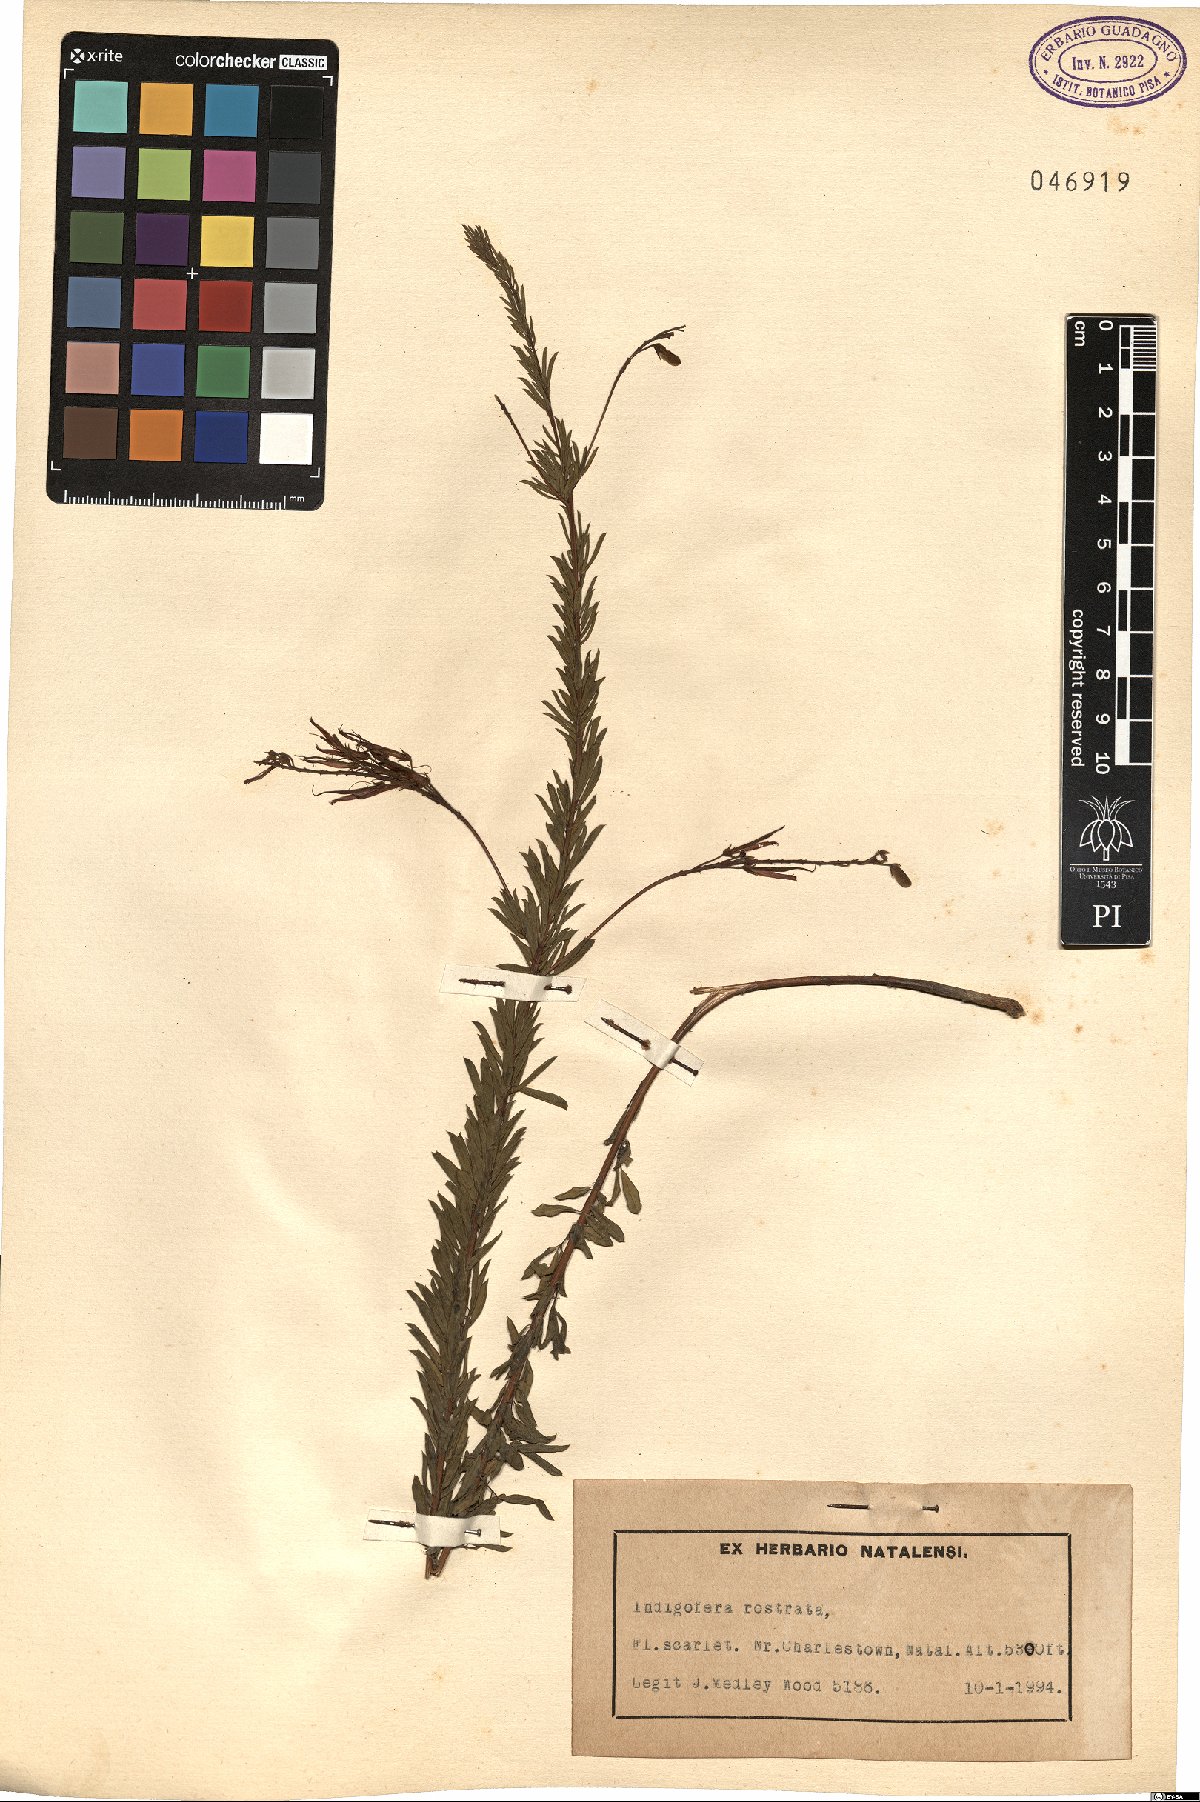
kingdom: Plantae
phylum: Tracheophyta
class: Magnoliopsida
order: Fabales
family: Fabaceae
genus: Indigastrum
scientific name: Indigastrum fastigiatum
